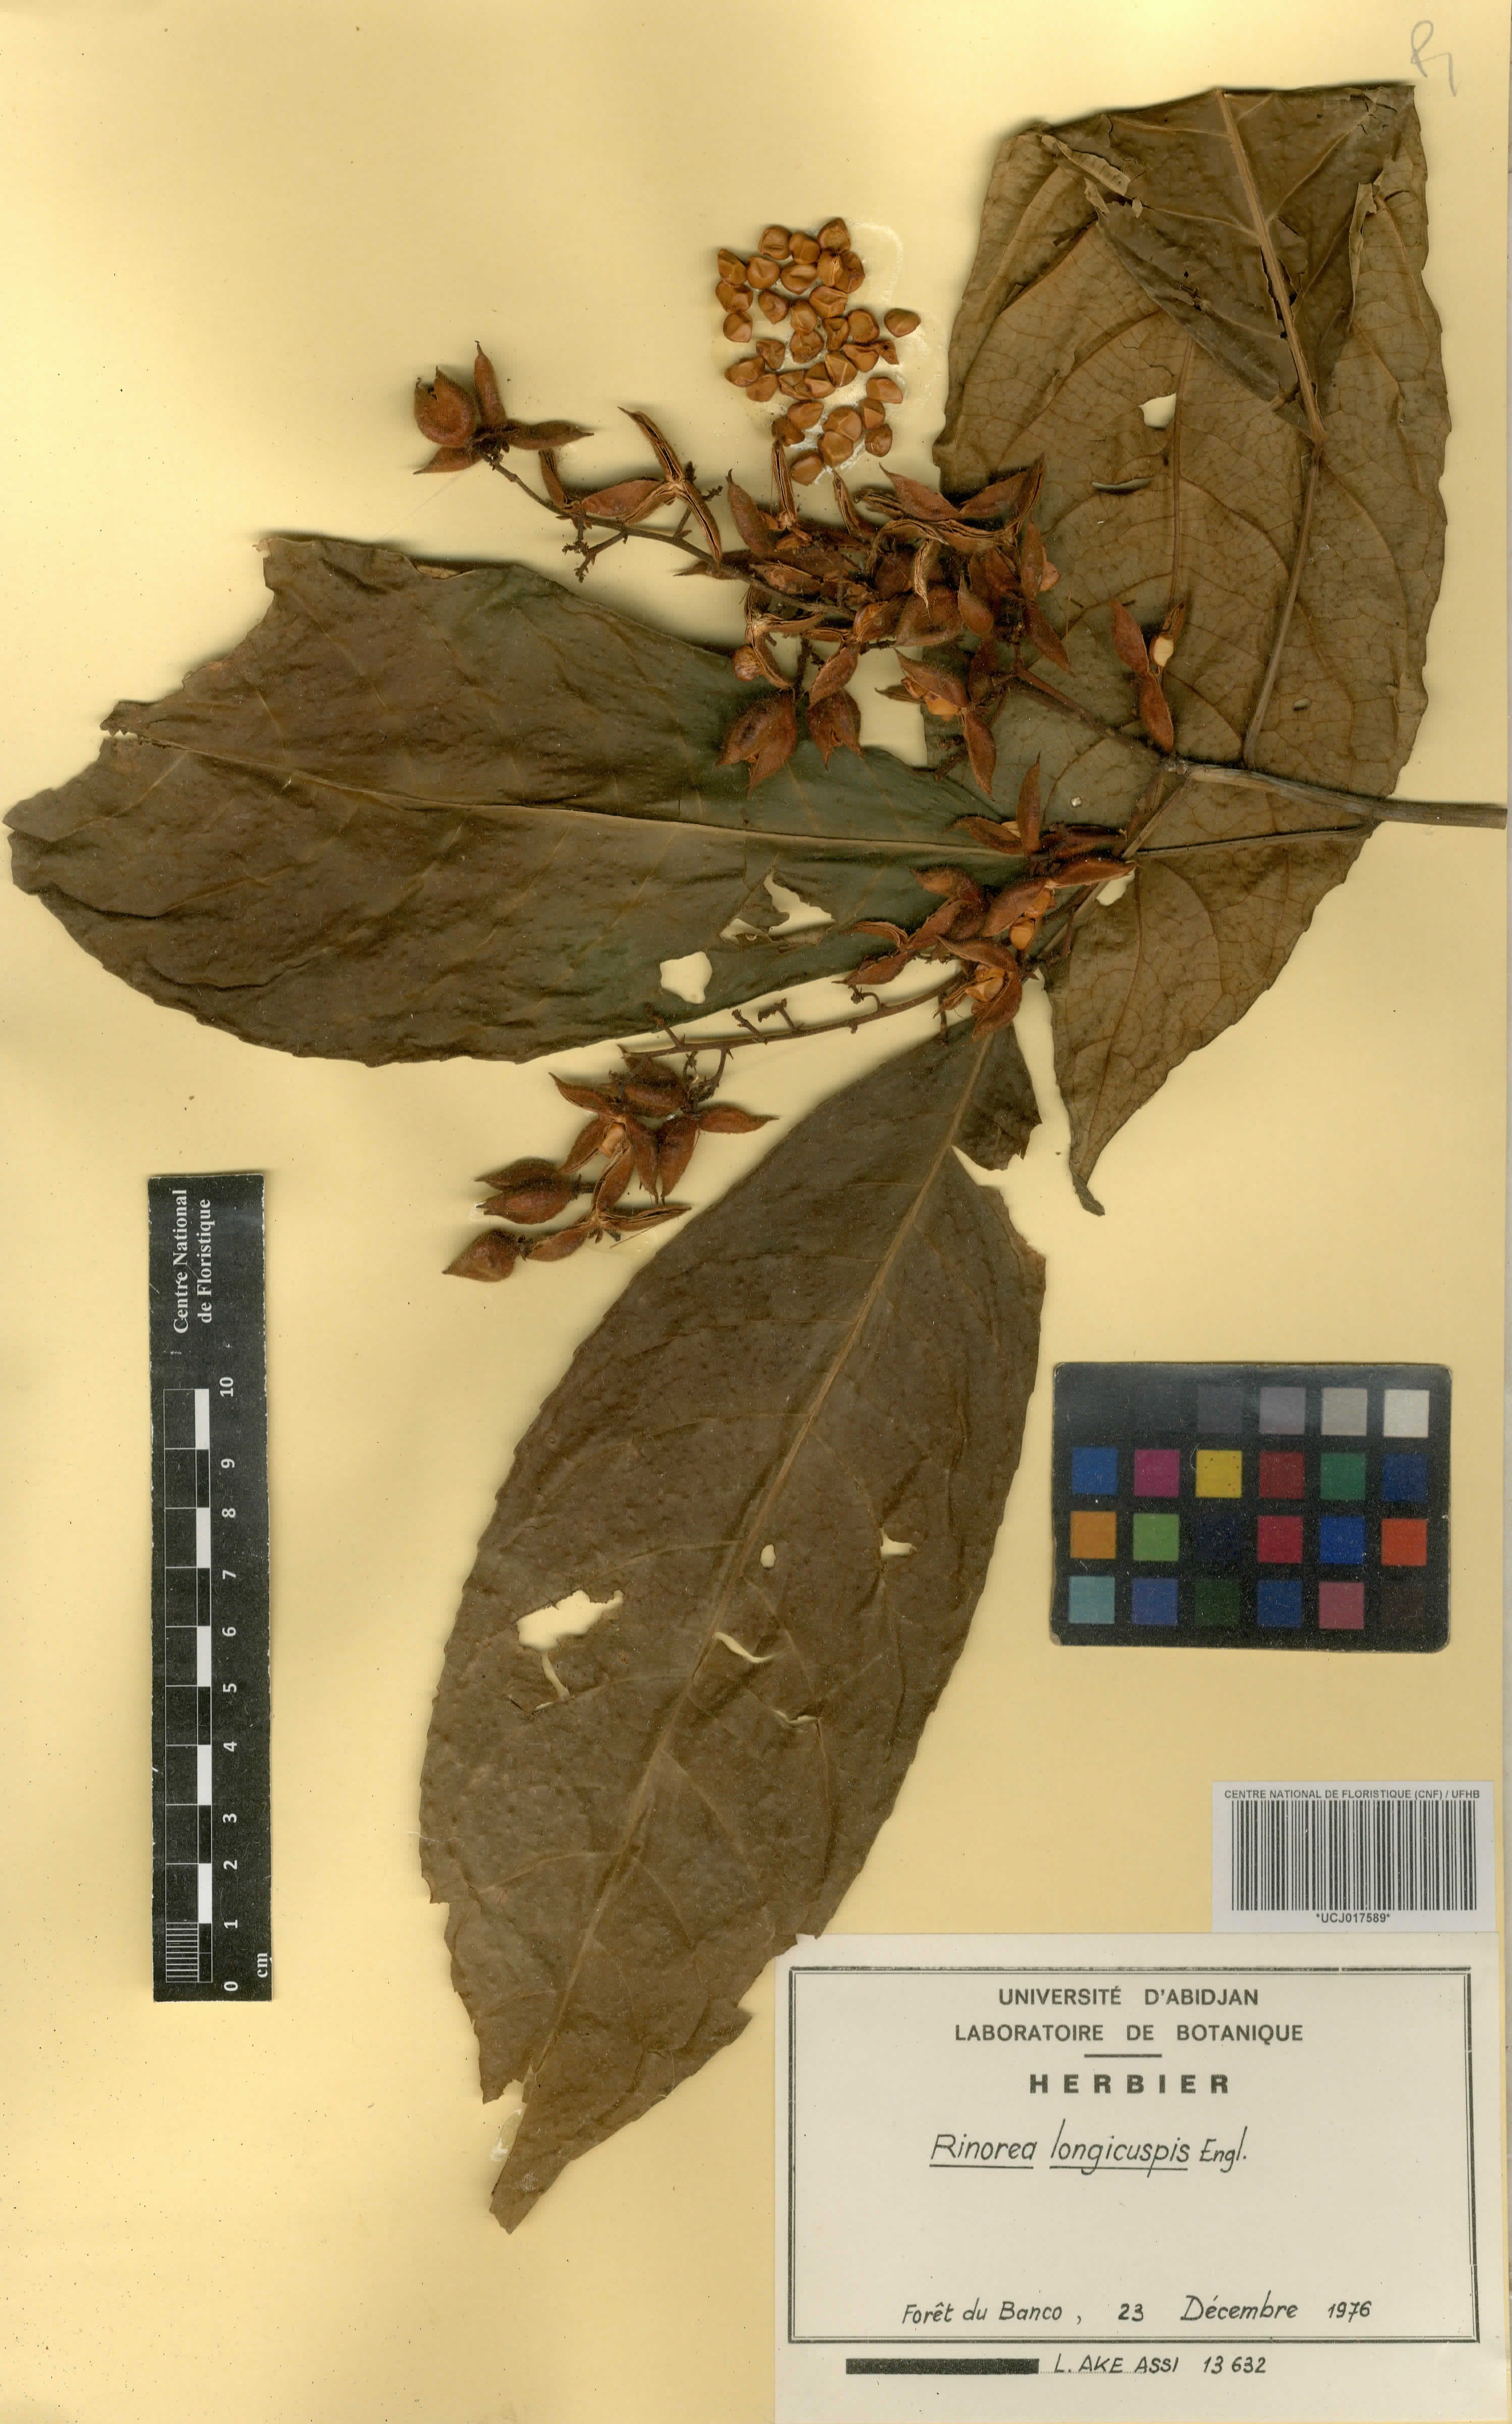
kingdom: Plantae
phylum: Tracheophyta
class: Magnoliopsida
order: Malpighiales
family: Violaceae
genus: Rinorea
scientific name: Rinorea welwitschii
